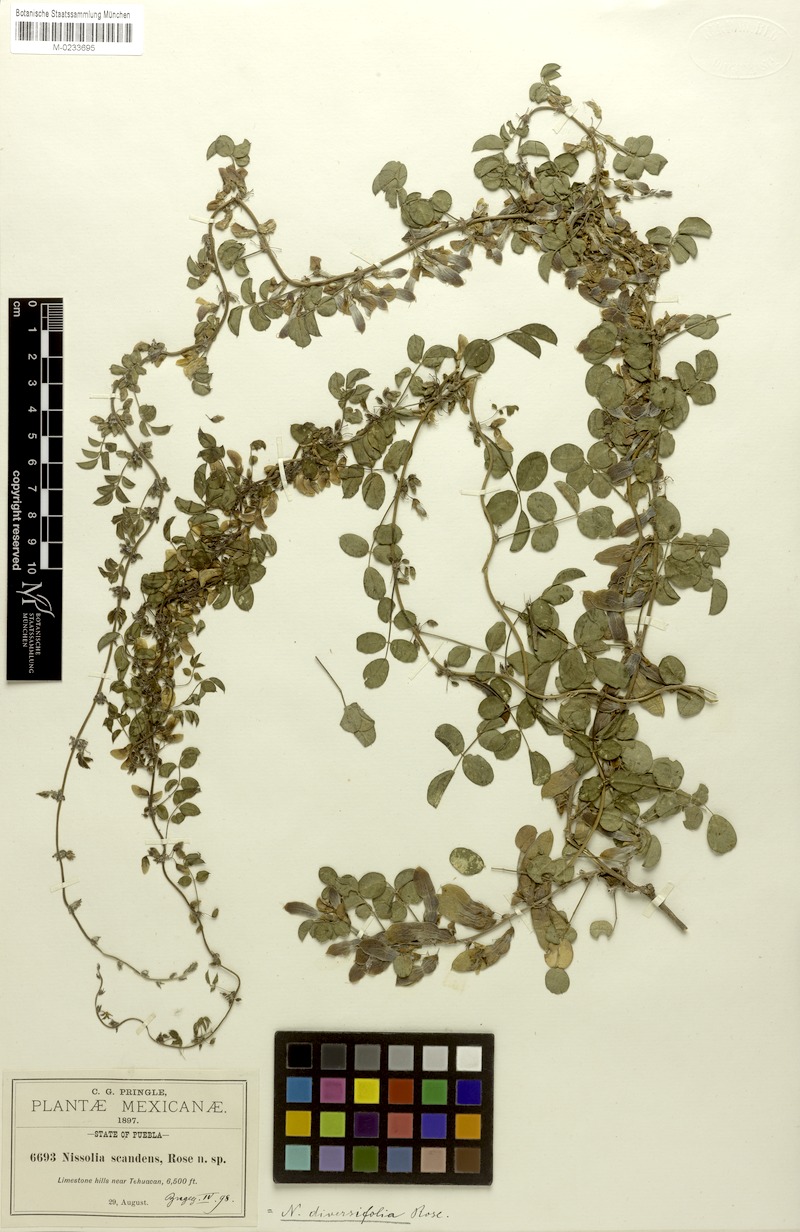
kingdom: Plantae
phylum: Tracheophyta
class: Magnoliopsida
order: Fabales
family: Fabaceae
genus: Nissolia
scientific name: Nissolia pringlei
